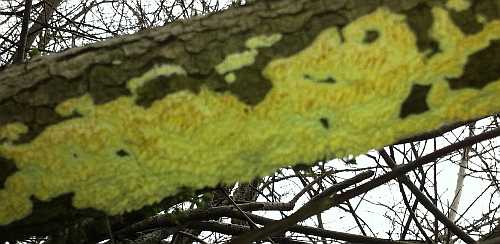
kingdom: Fungi
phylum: Basidiomycota
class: Agaricomycetes
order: Hymenochaetales
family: Schizoporaceae
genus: Xylodon
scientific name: Xylodon radula
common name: grovtandet kalkskind
